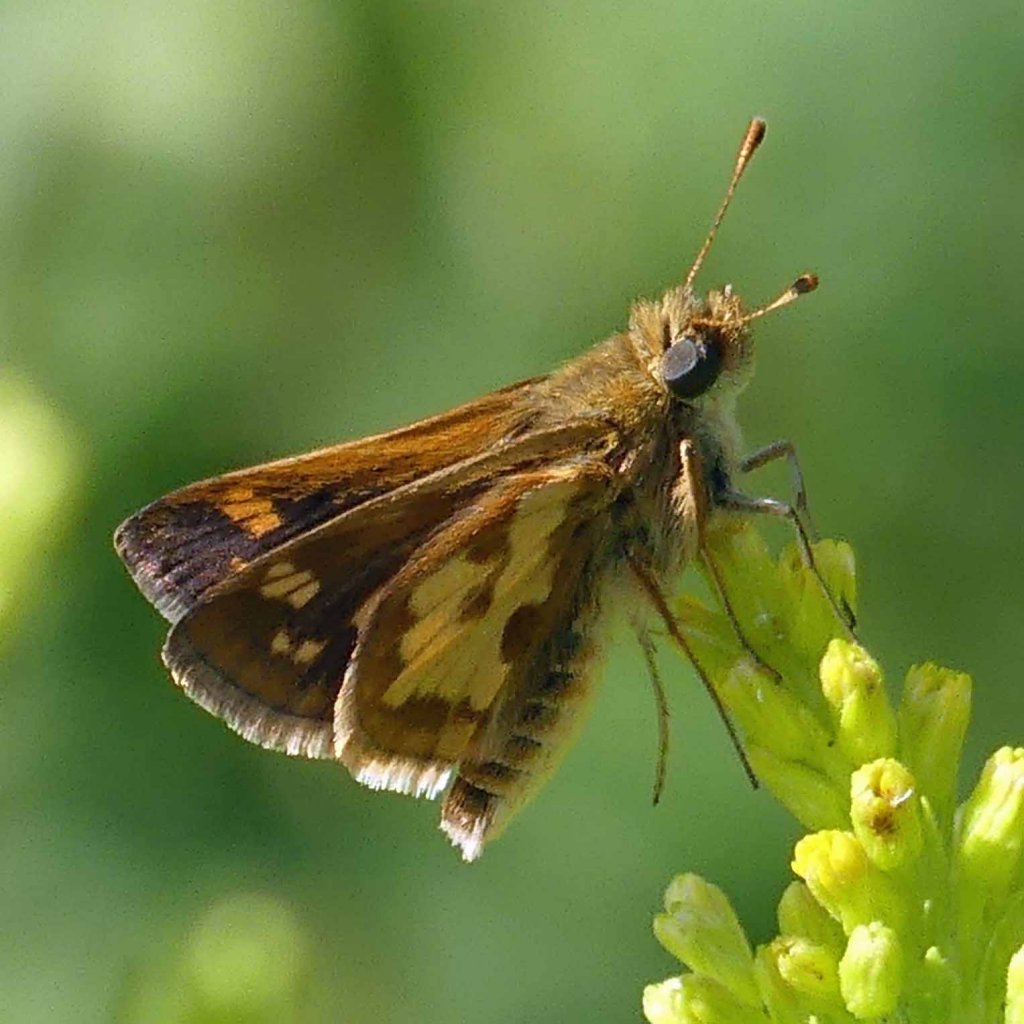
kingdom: Animalia
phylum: Arthropoda
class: Insecta
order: Lepidoptera
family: Hesperiidae
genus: Polites
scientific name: Polites coras
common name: Peck's Skipper
